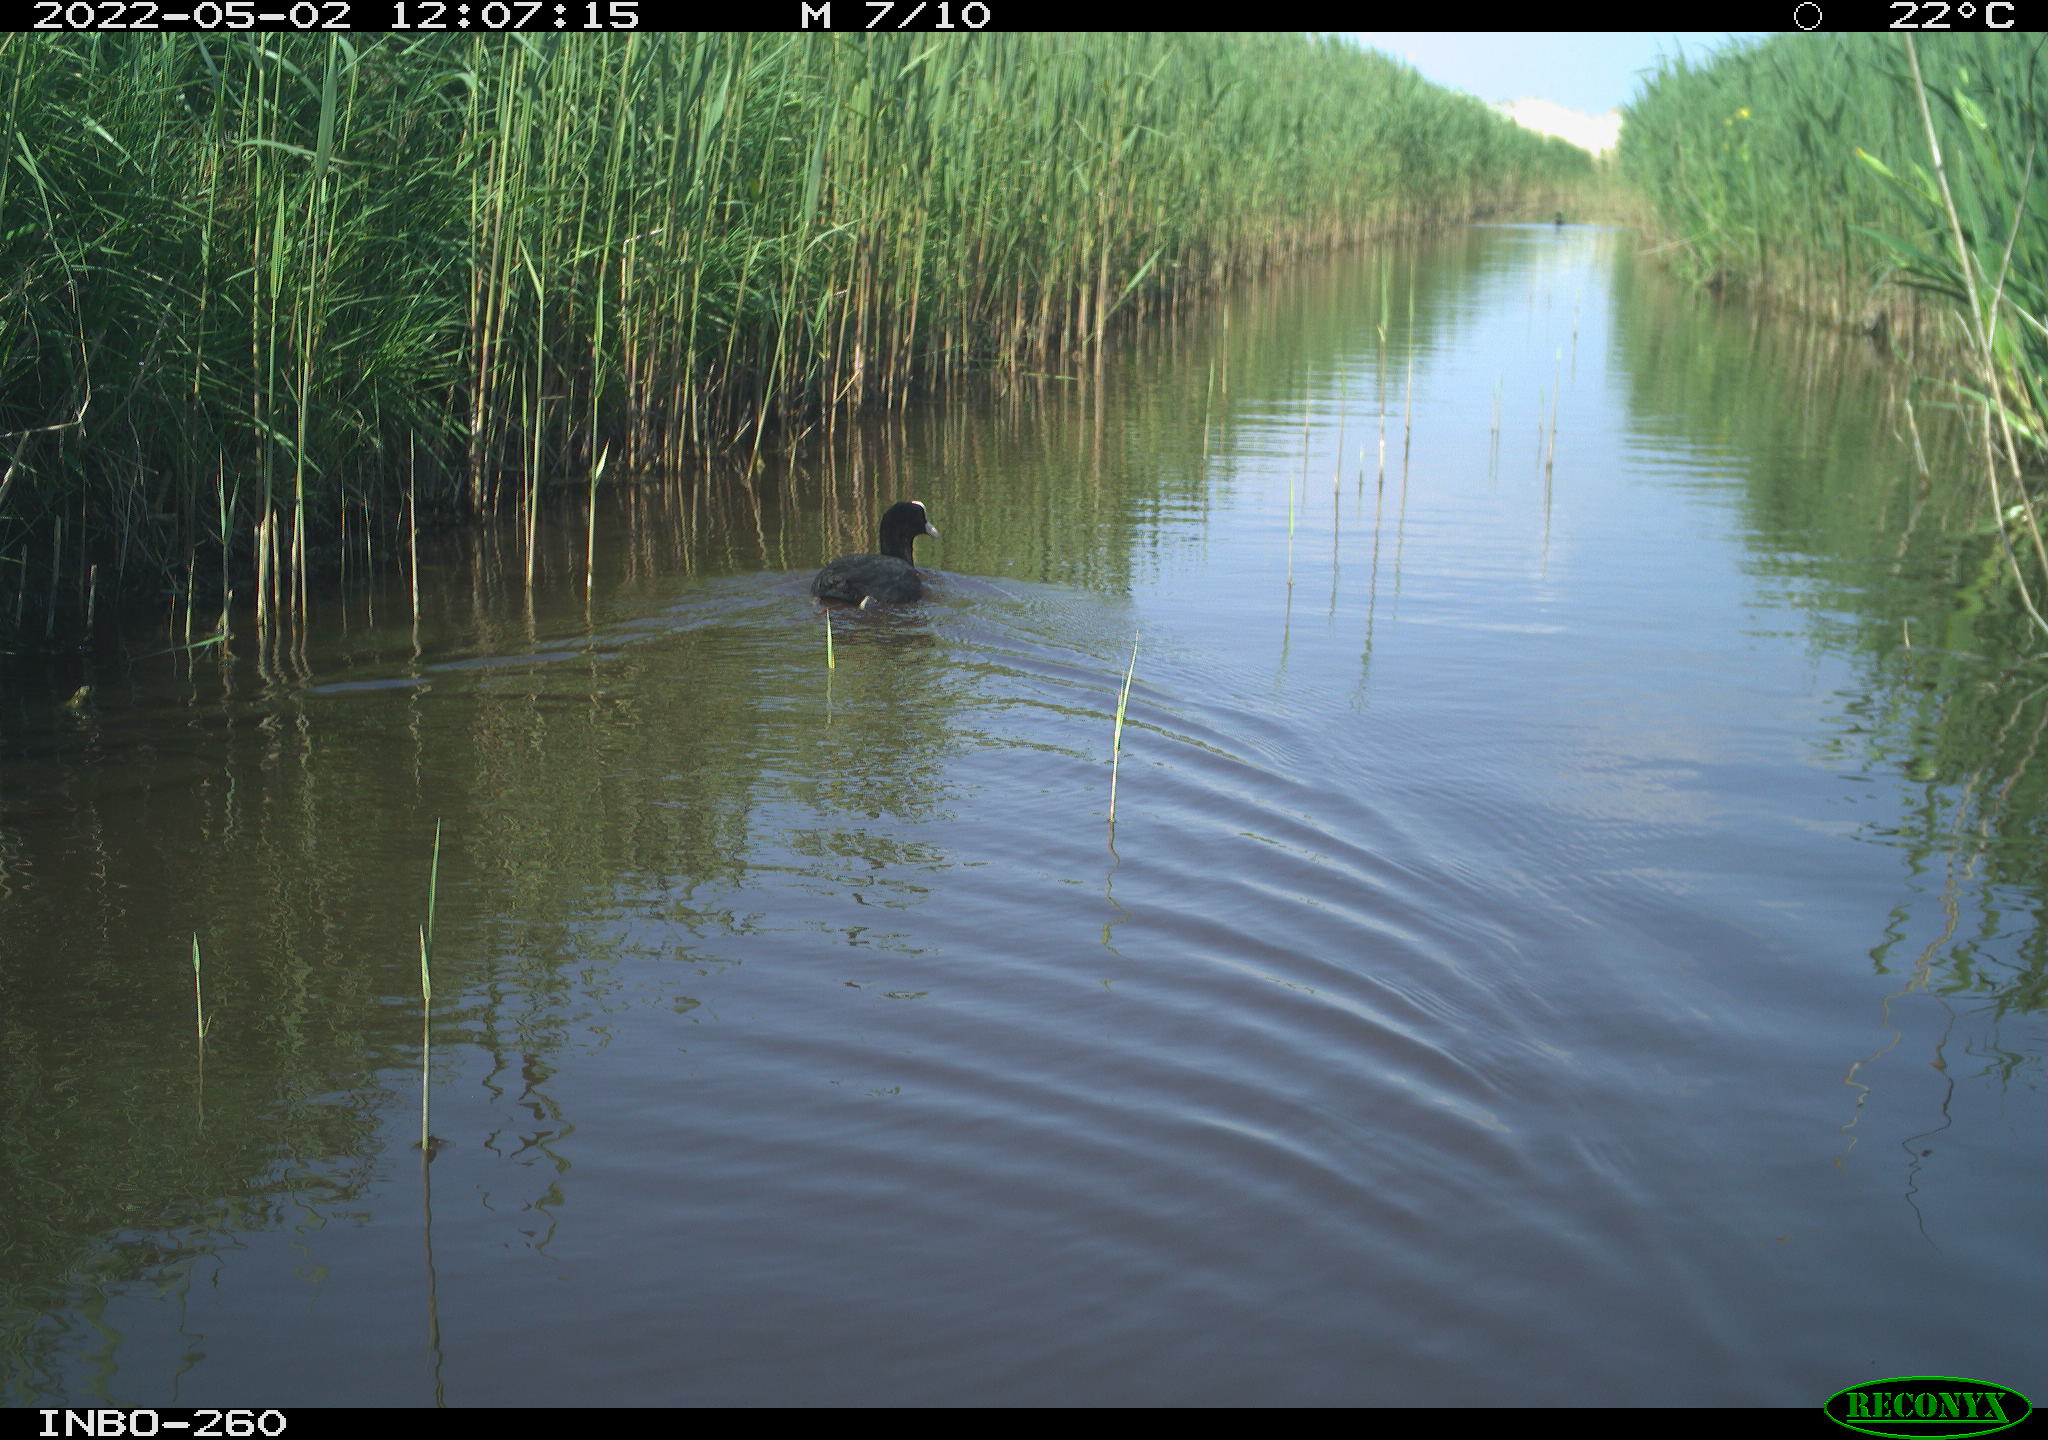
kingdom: Animalia
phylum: Chordata
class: Aves
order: Gruiformes
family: Rallidae
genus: Fulica
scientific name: Fulica atra
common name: Eurasian coot
